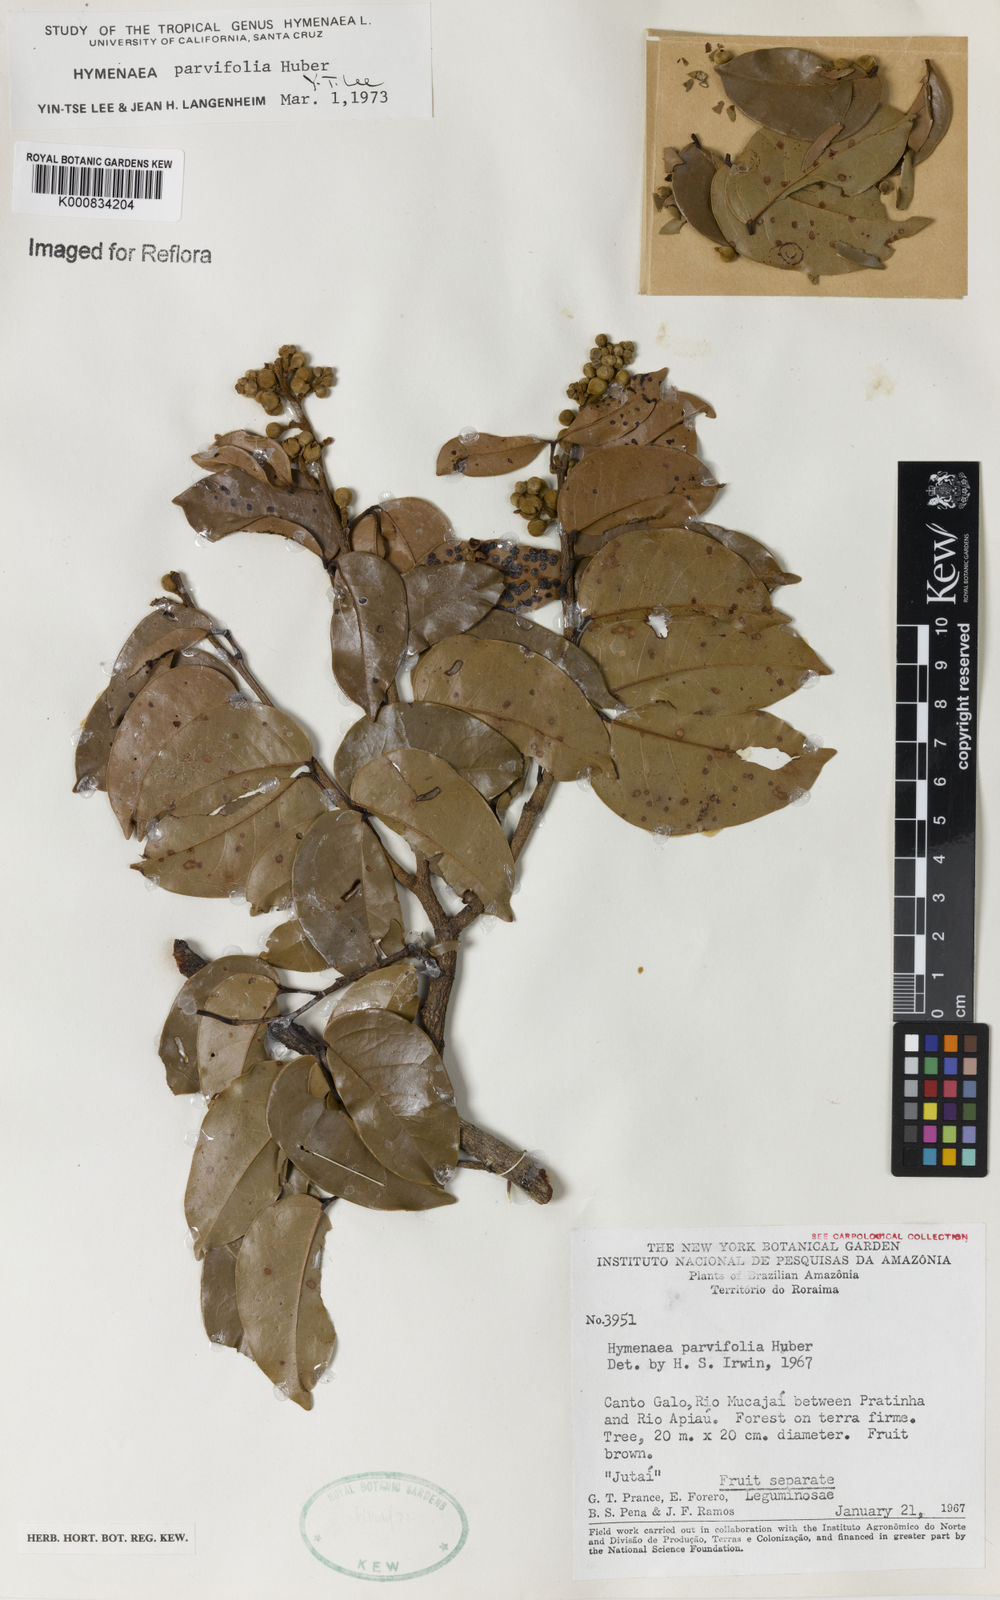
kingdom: Plantae
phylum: Tracheophyta
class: Magnoliopsida
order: Fabales
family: Fabaceae
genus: Hymenaea
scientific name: Hymenaea parvifolia
